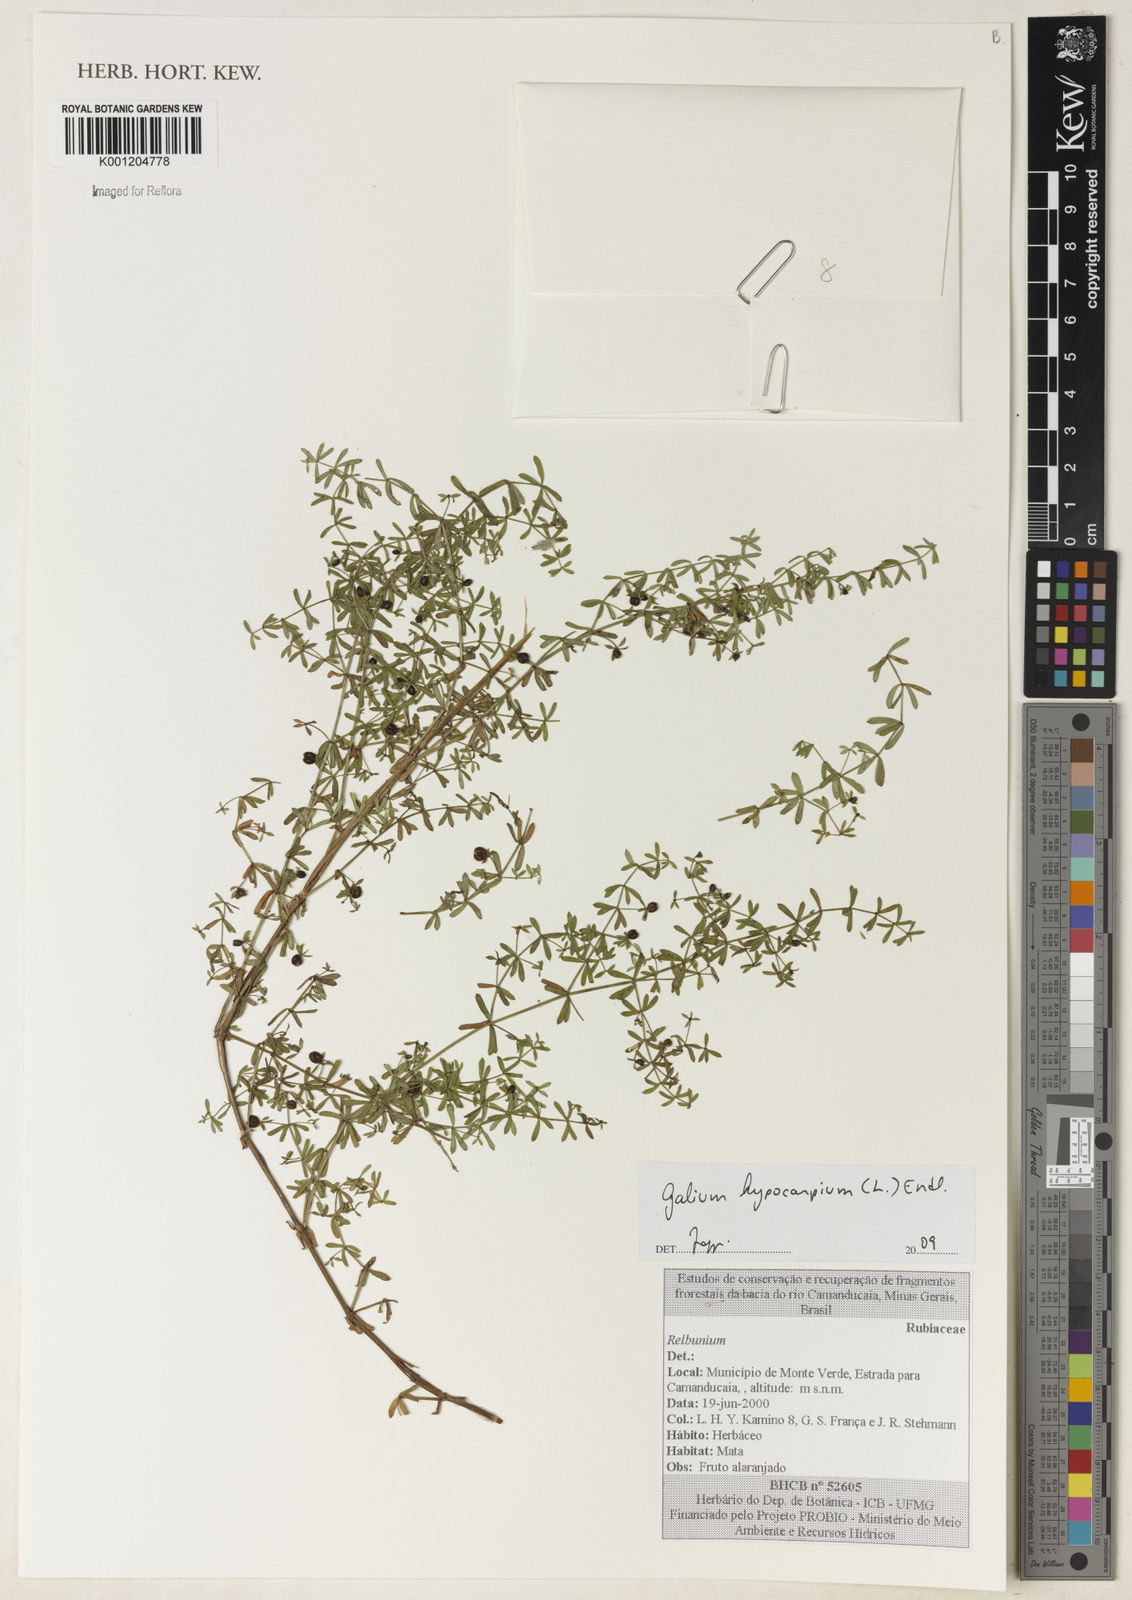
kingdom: Plantae
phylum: Tracheophyta
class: Magnoliopsida
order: Gentianales
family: Rubiaceae
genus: Galium
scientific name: Galium hypocarpium
